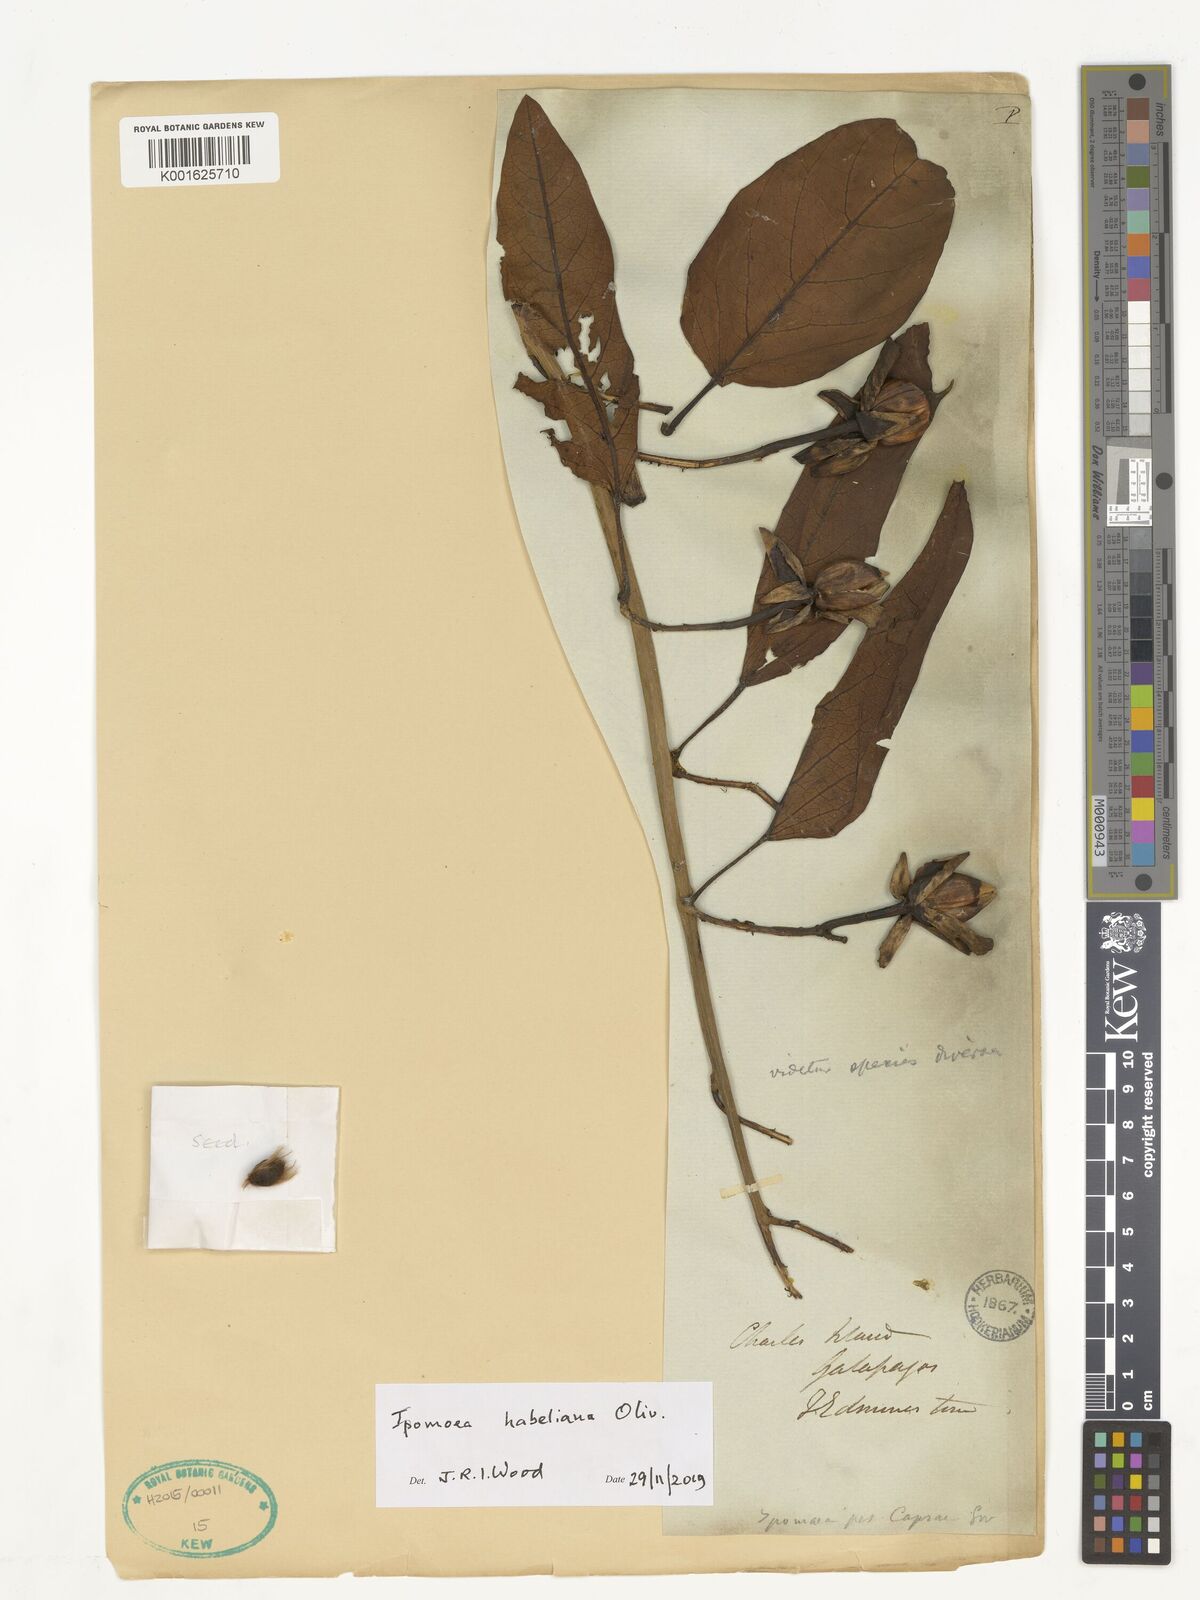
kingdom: Plantae
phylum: Tracheophyta
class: Magnoliopsida
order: Solanales
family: Convolvulaceae
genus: Ipomoea
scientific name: Ipomoea habeliana
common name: Lava morning glory
